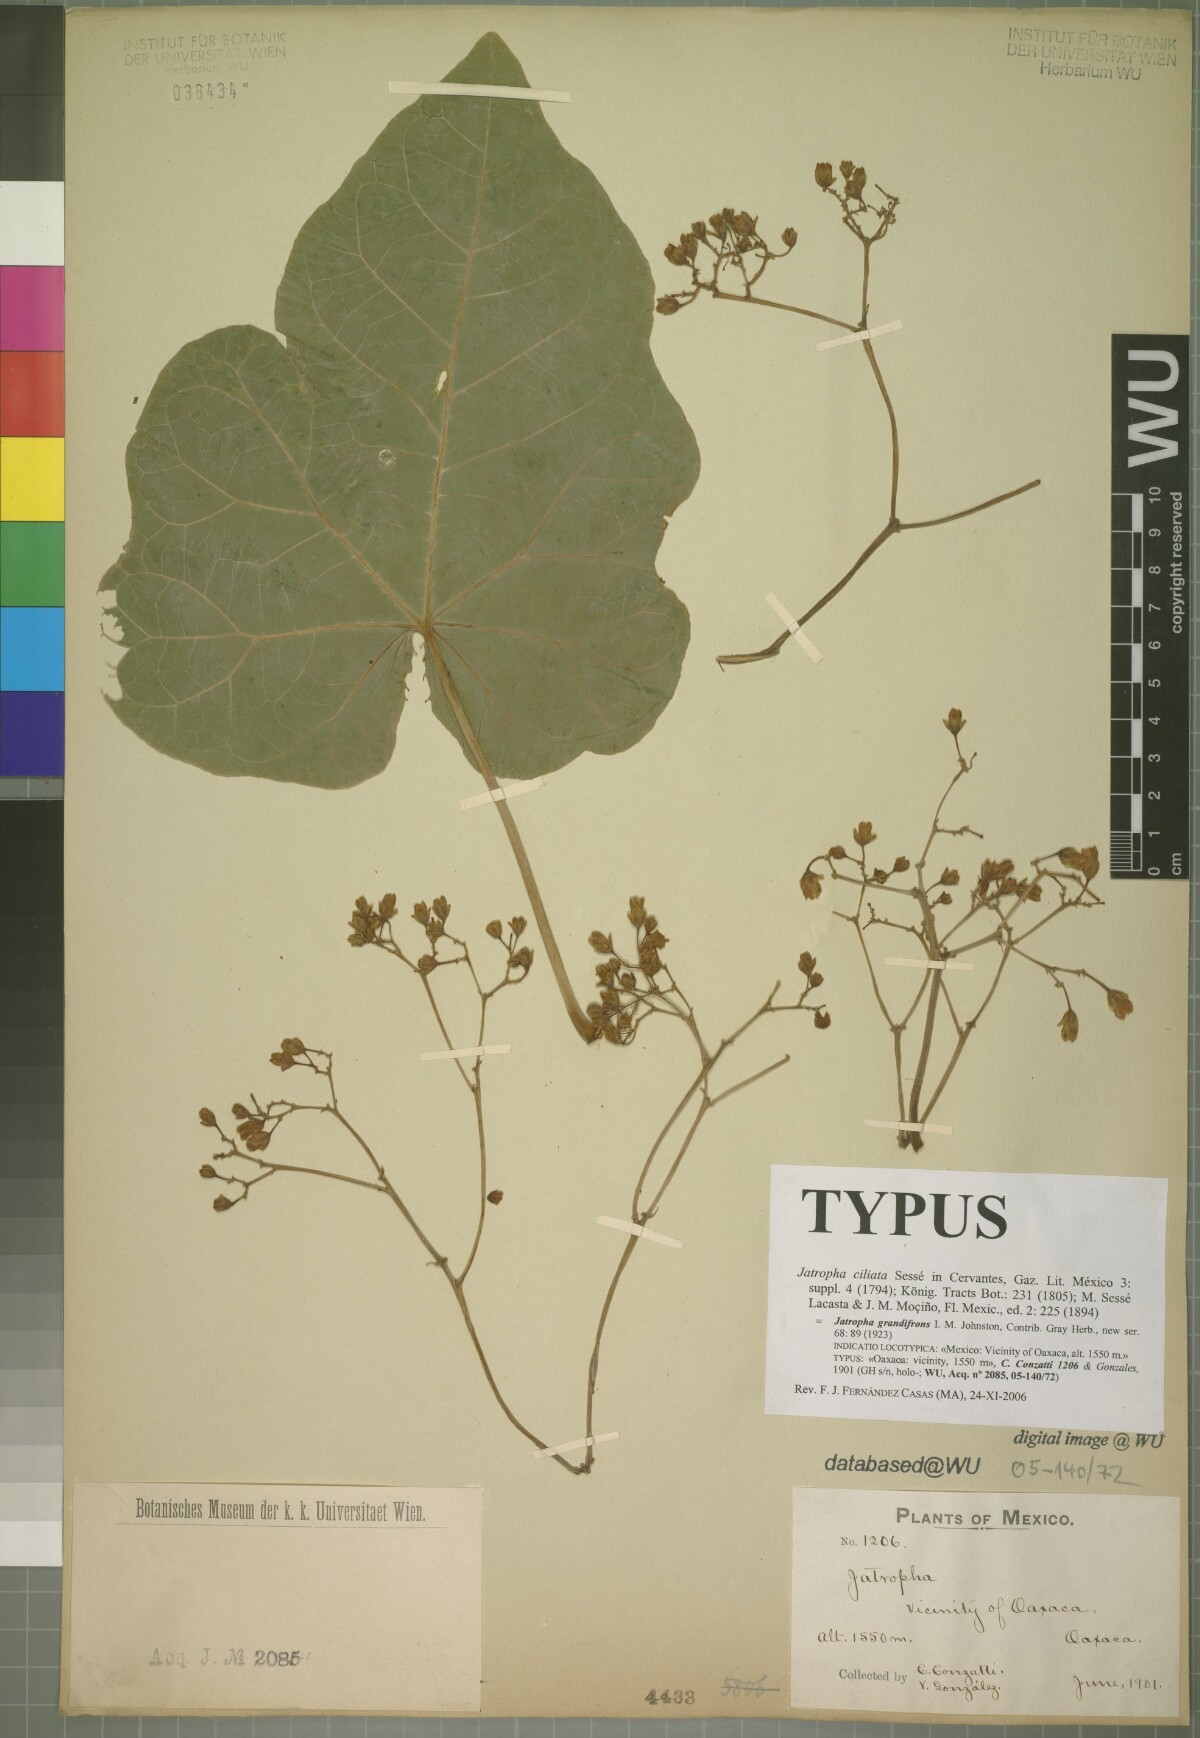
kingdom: Plantae
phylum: Tracheophyta
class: Magnoliopsida
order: Malpighiales
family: Euphorbiaceae
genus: Jatropha
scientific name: Jatropha ciliata
